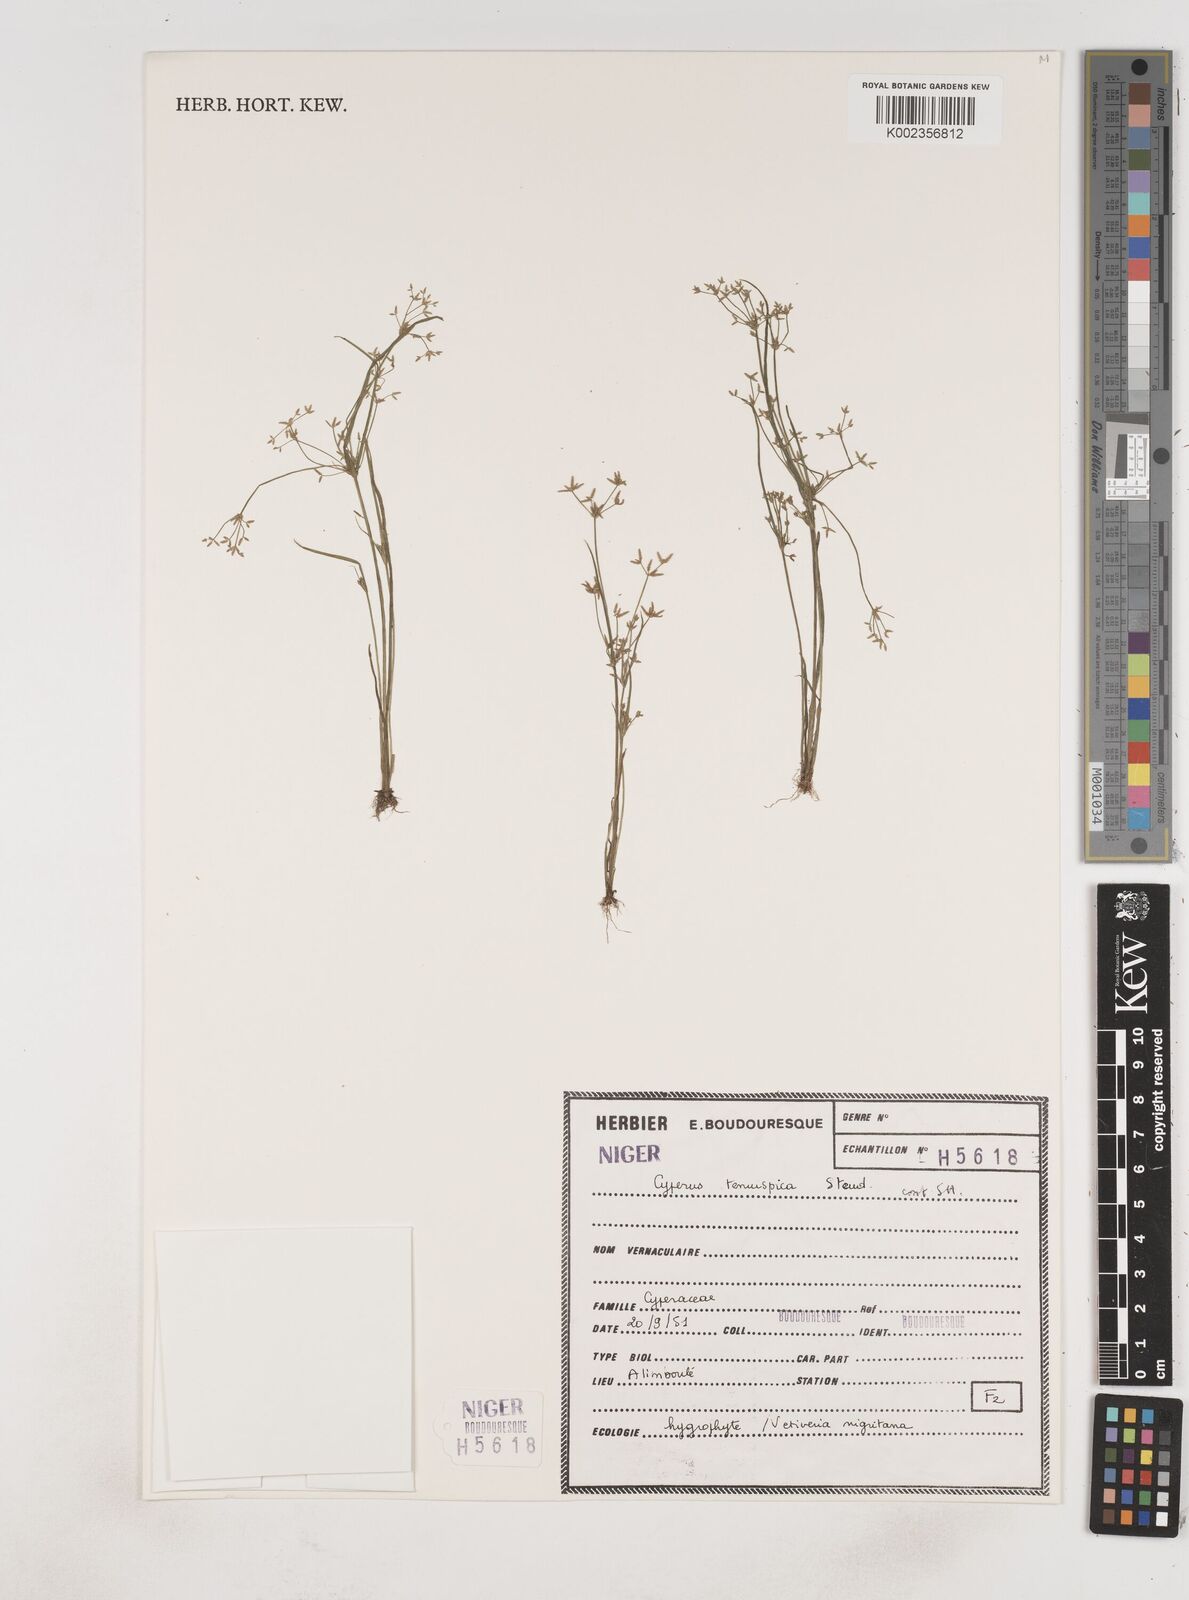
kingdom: Plantae
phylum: Tracheophyta
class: Liliopsida
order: Poales
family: Cyperaceae
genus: Cyperus
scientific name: Cyperus tenuispica
